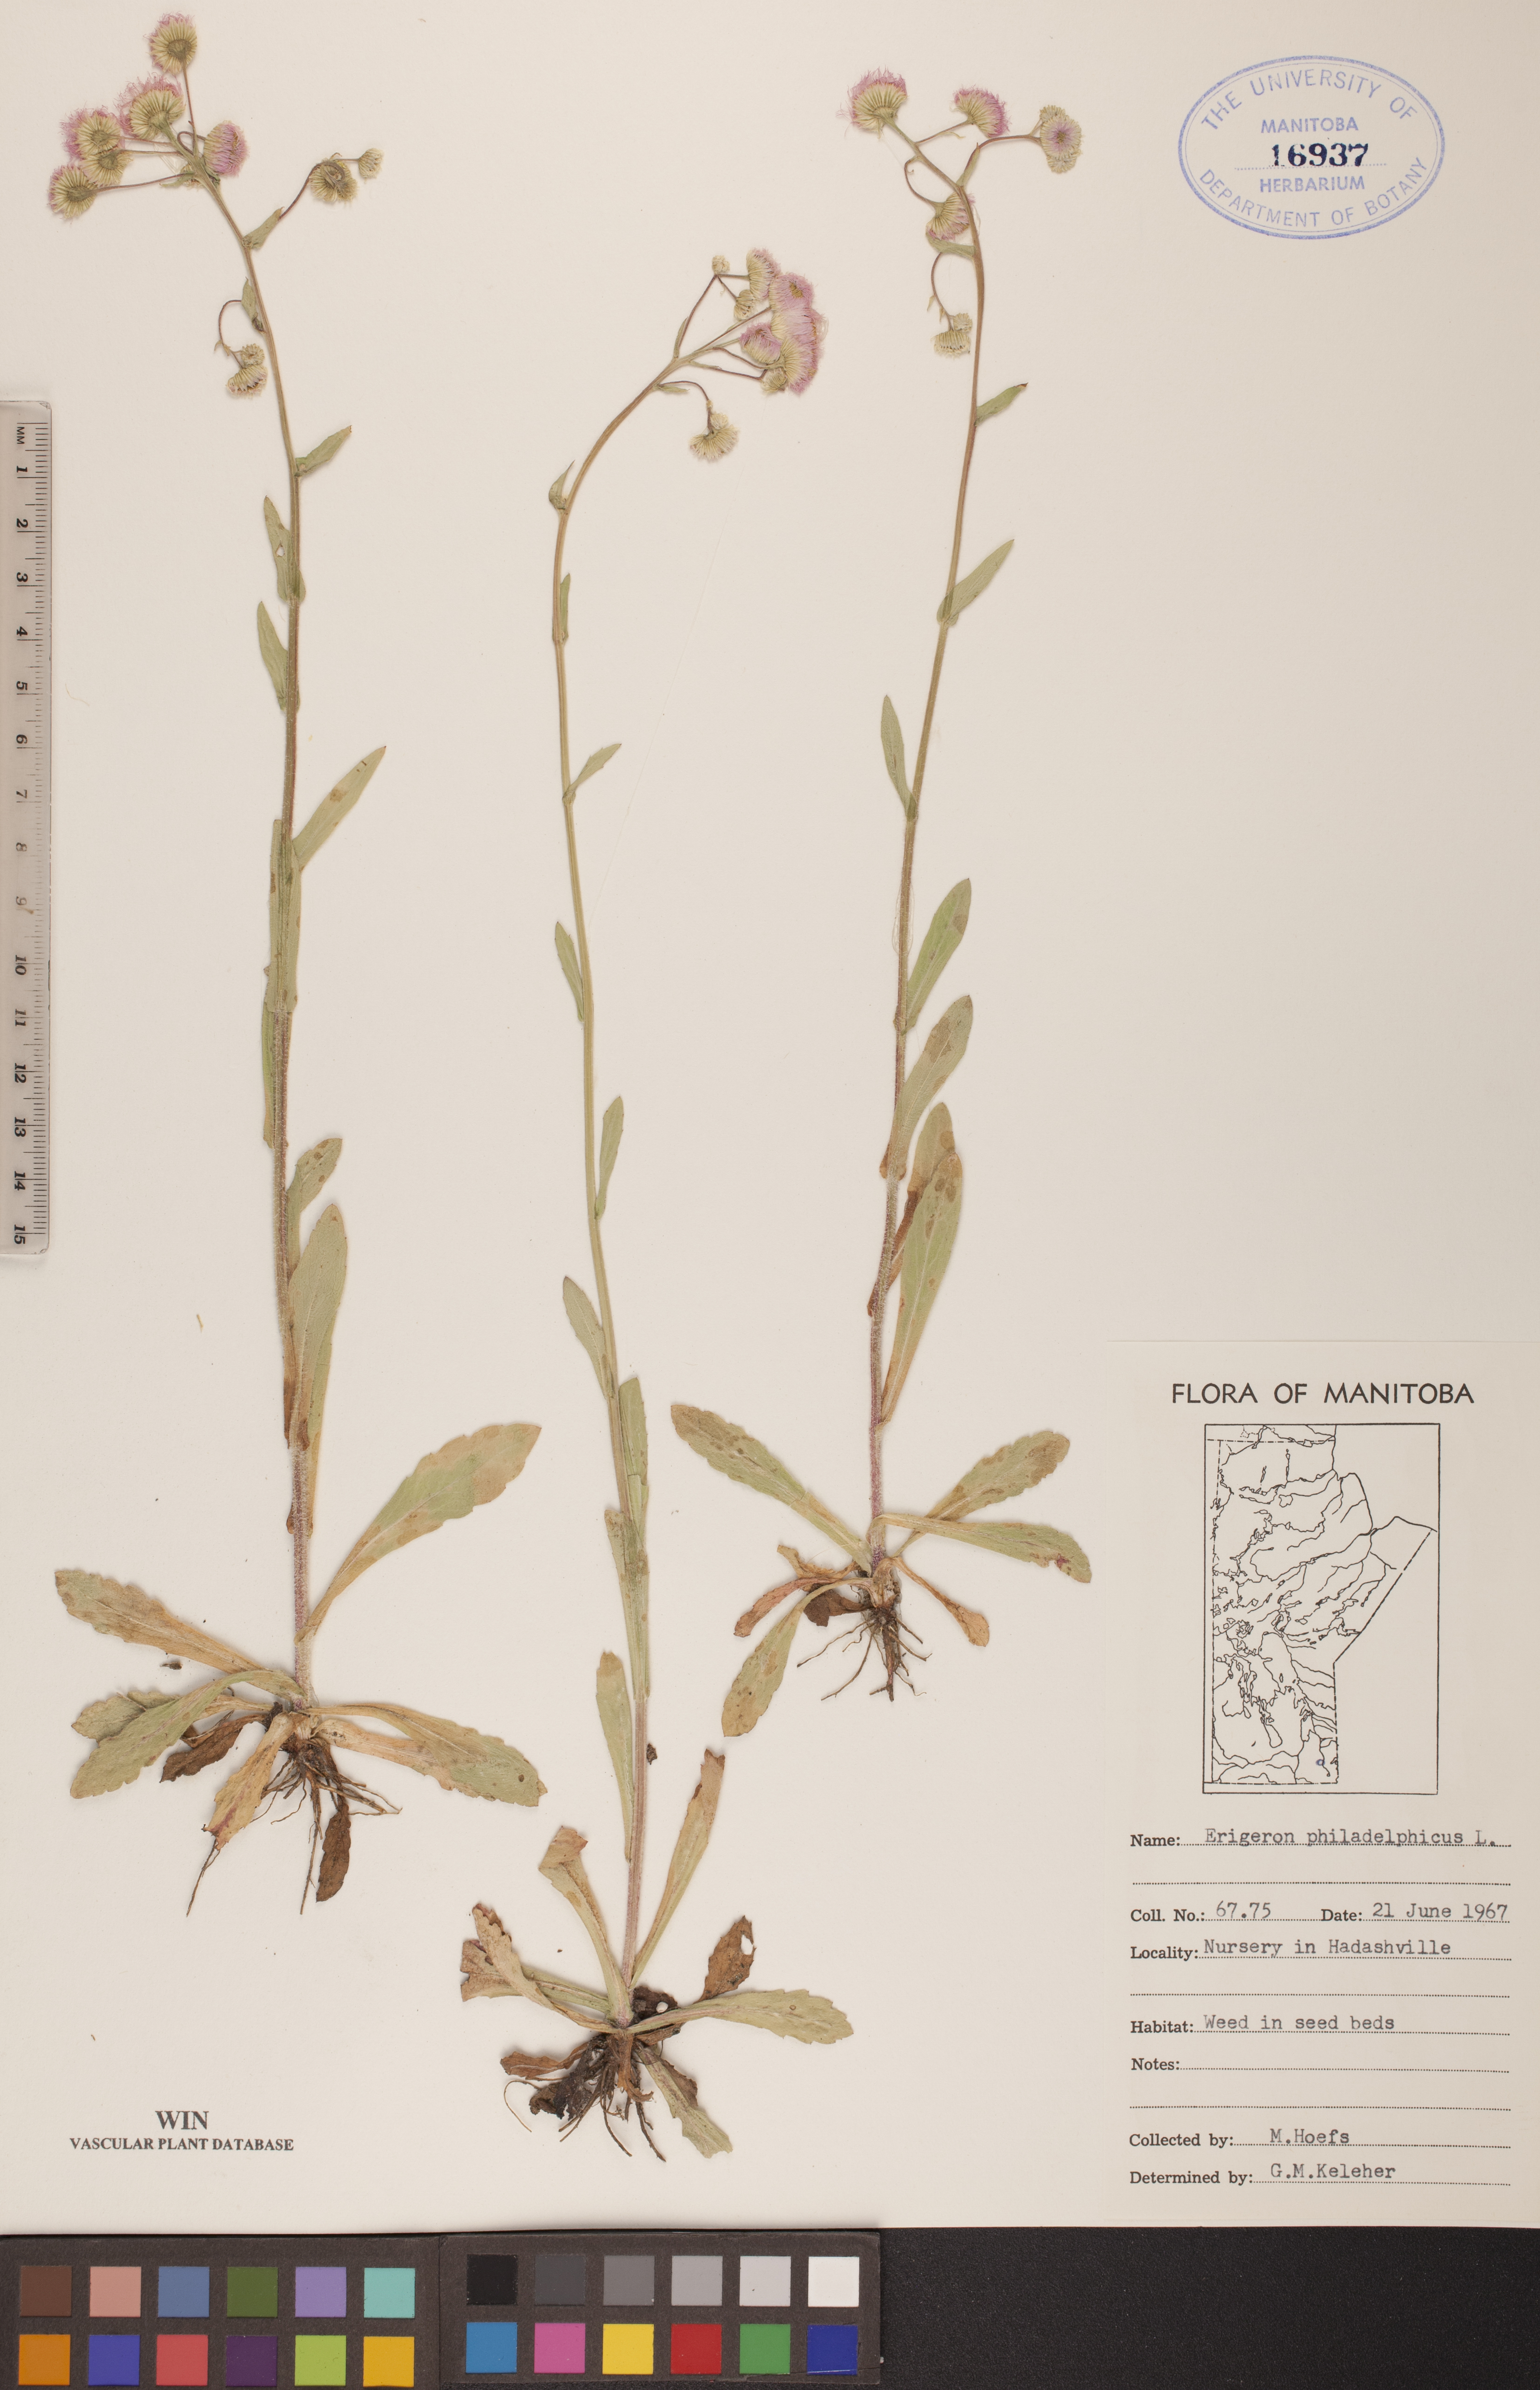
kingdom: Plantae
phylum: Tracheophyta
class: Magnoliopsida
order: Asterales
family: Asteraceae
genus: Erigeron
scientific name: Erigeron philadelphicus
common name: Robin's-plantain
